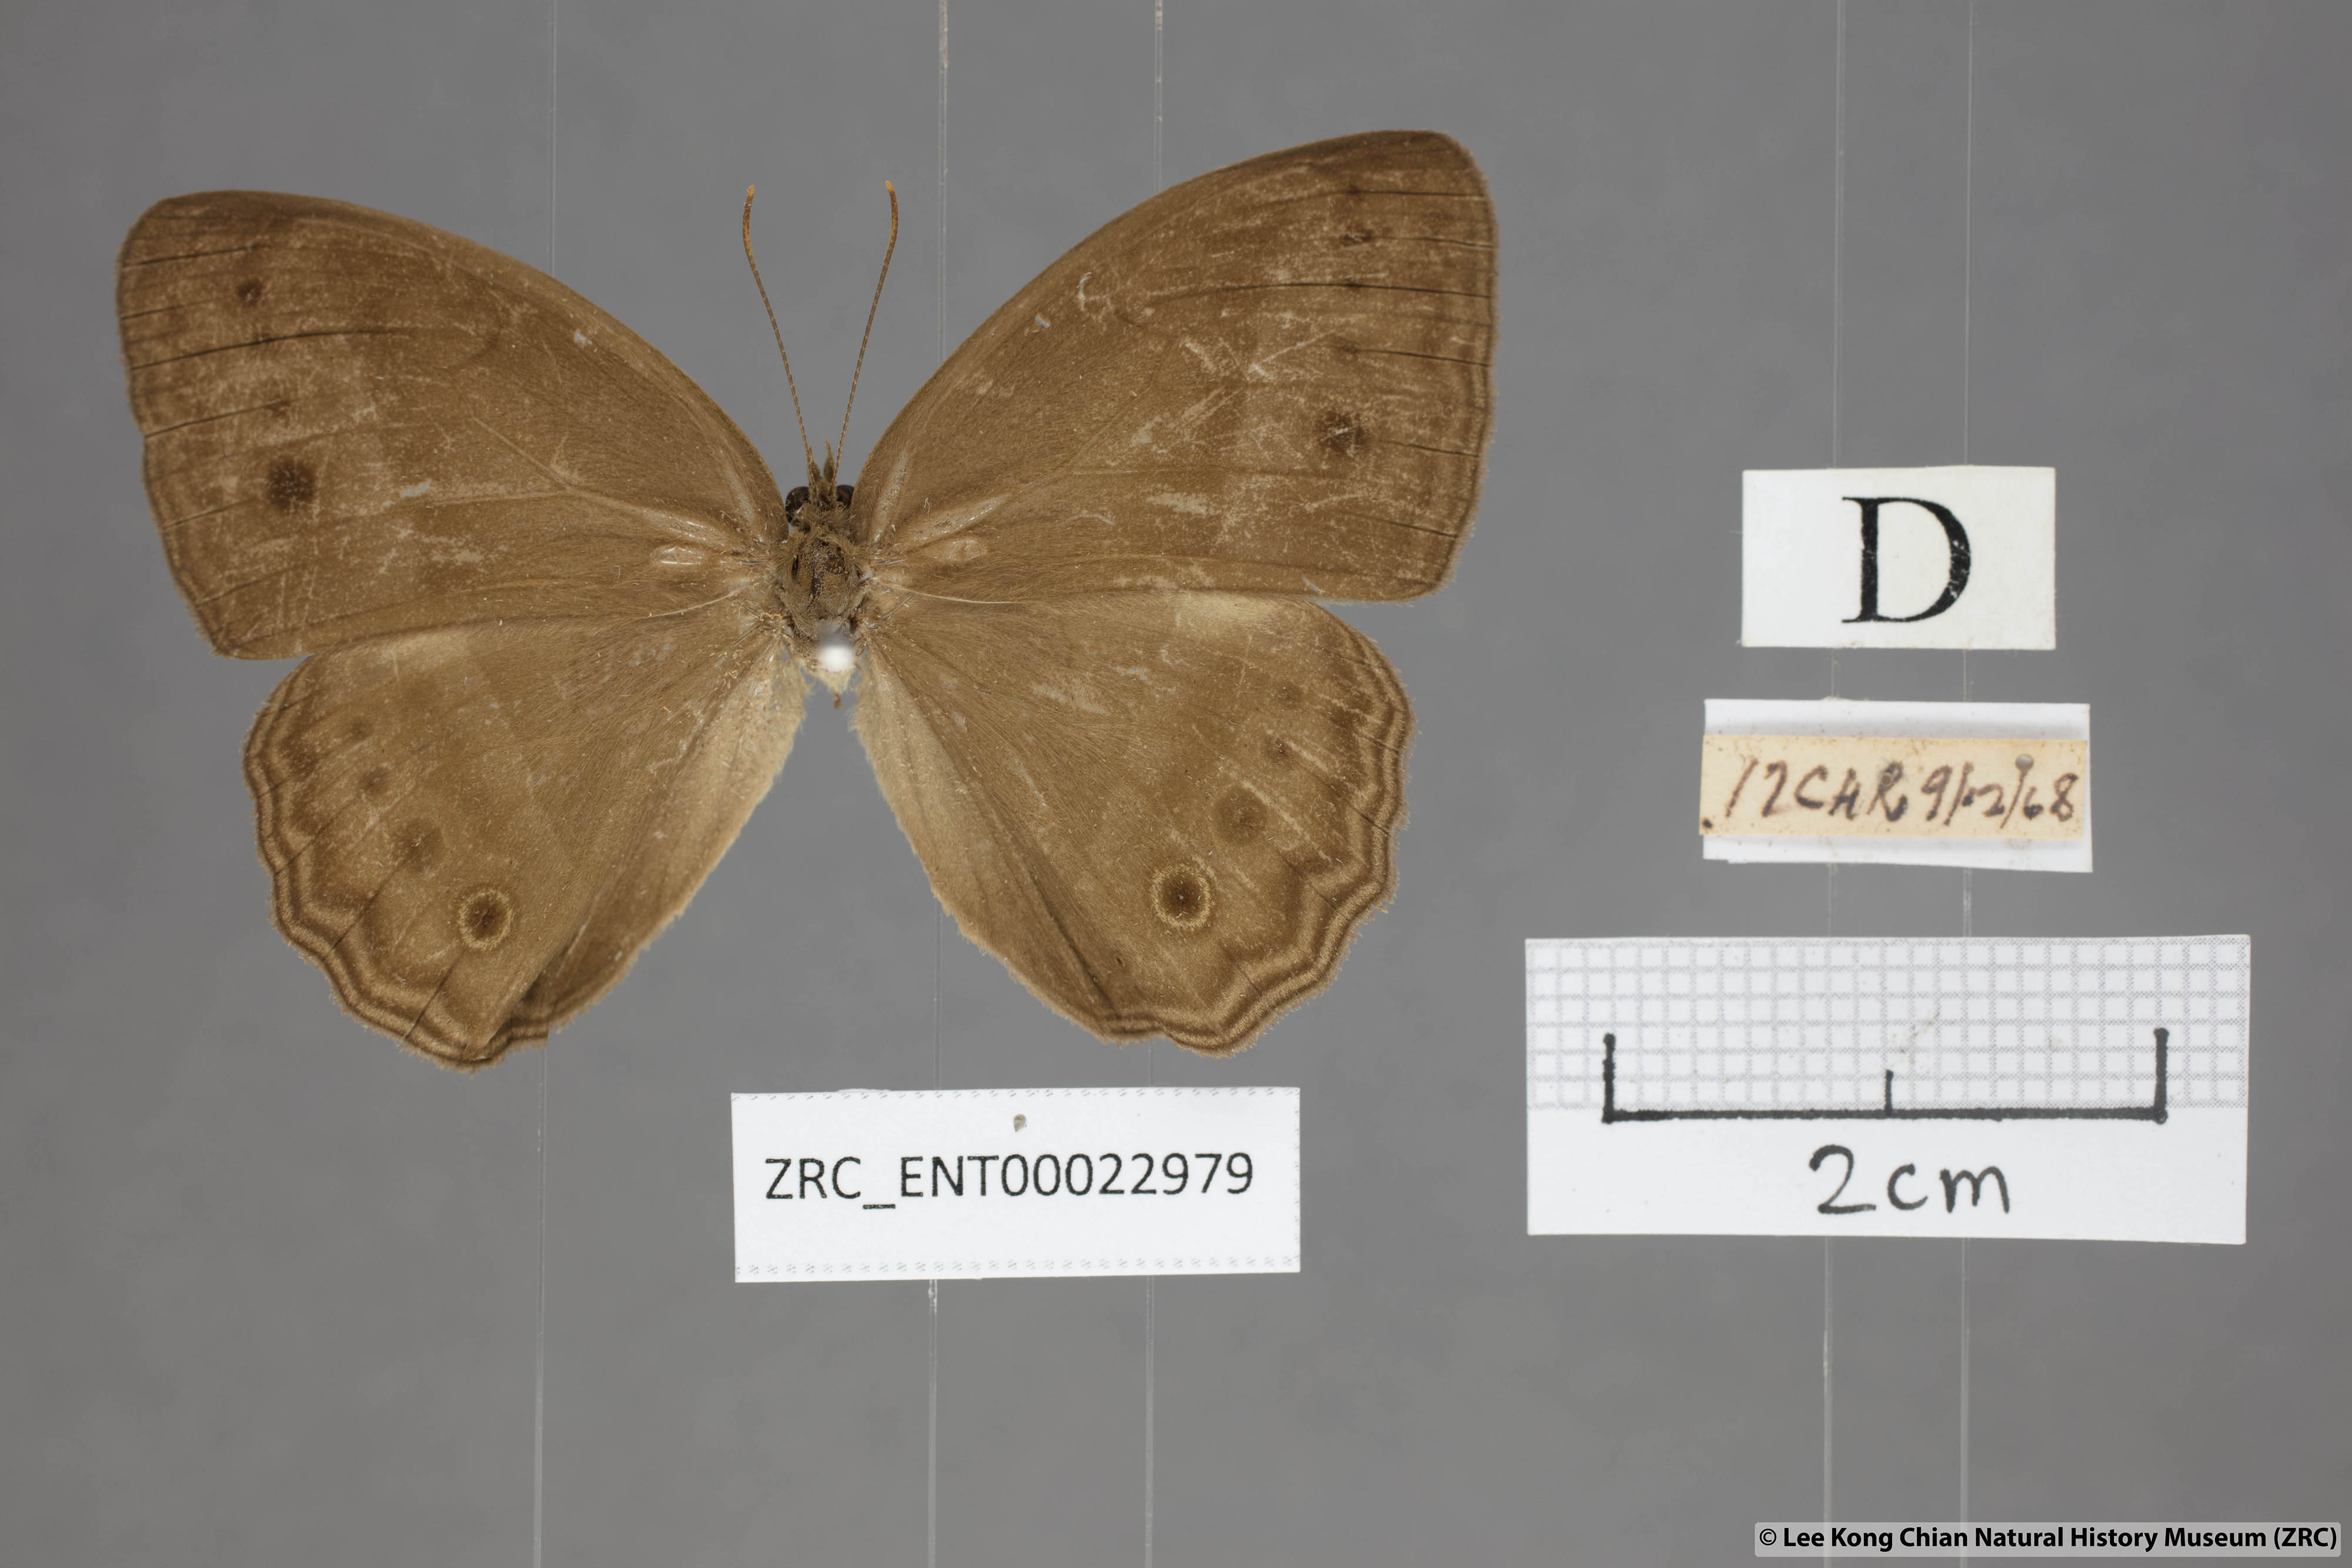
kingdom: Animalia
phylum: Arthropoda
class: Insecta
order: Lepidoptera
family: Nymphalidae
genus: Mycalesis
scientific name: Mycalesis orseis
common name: Purple bushbrown
